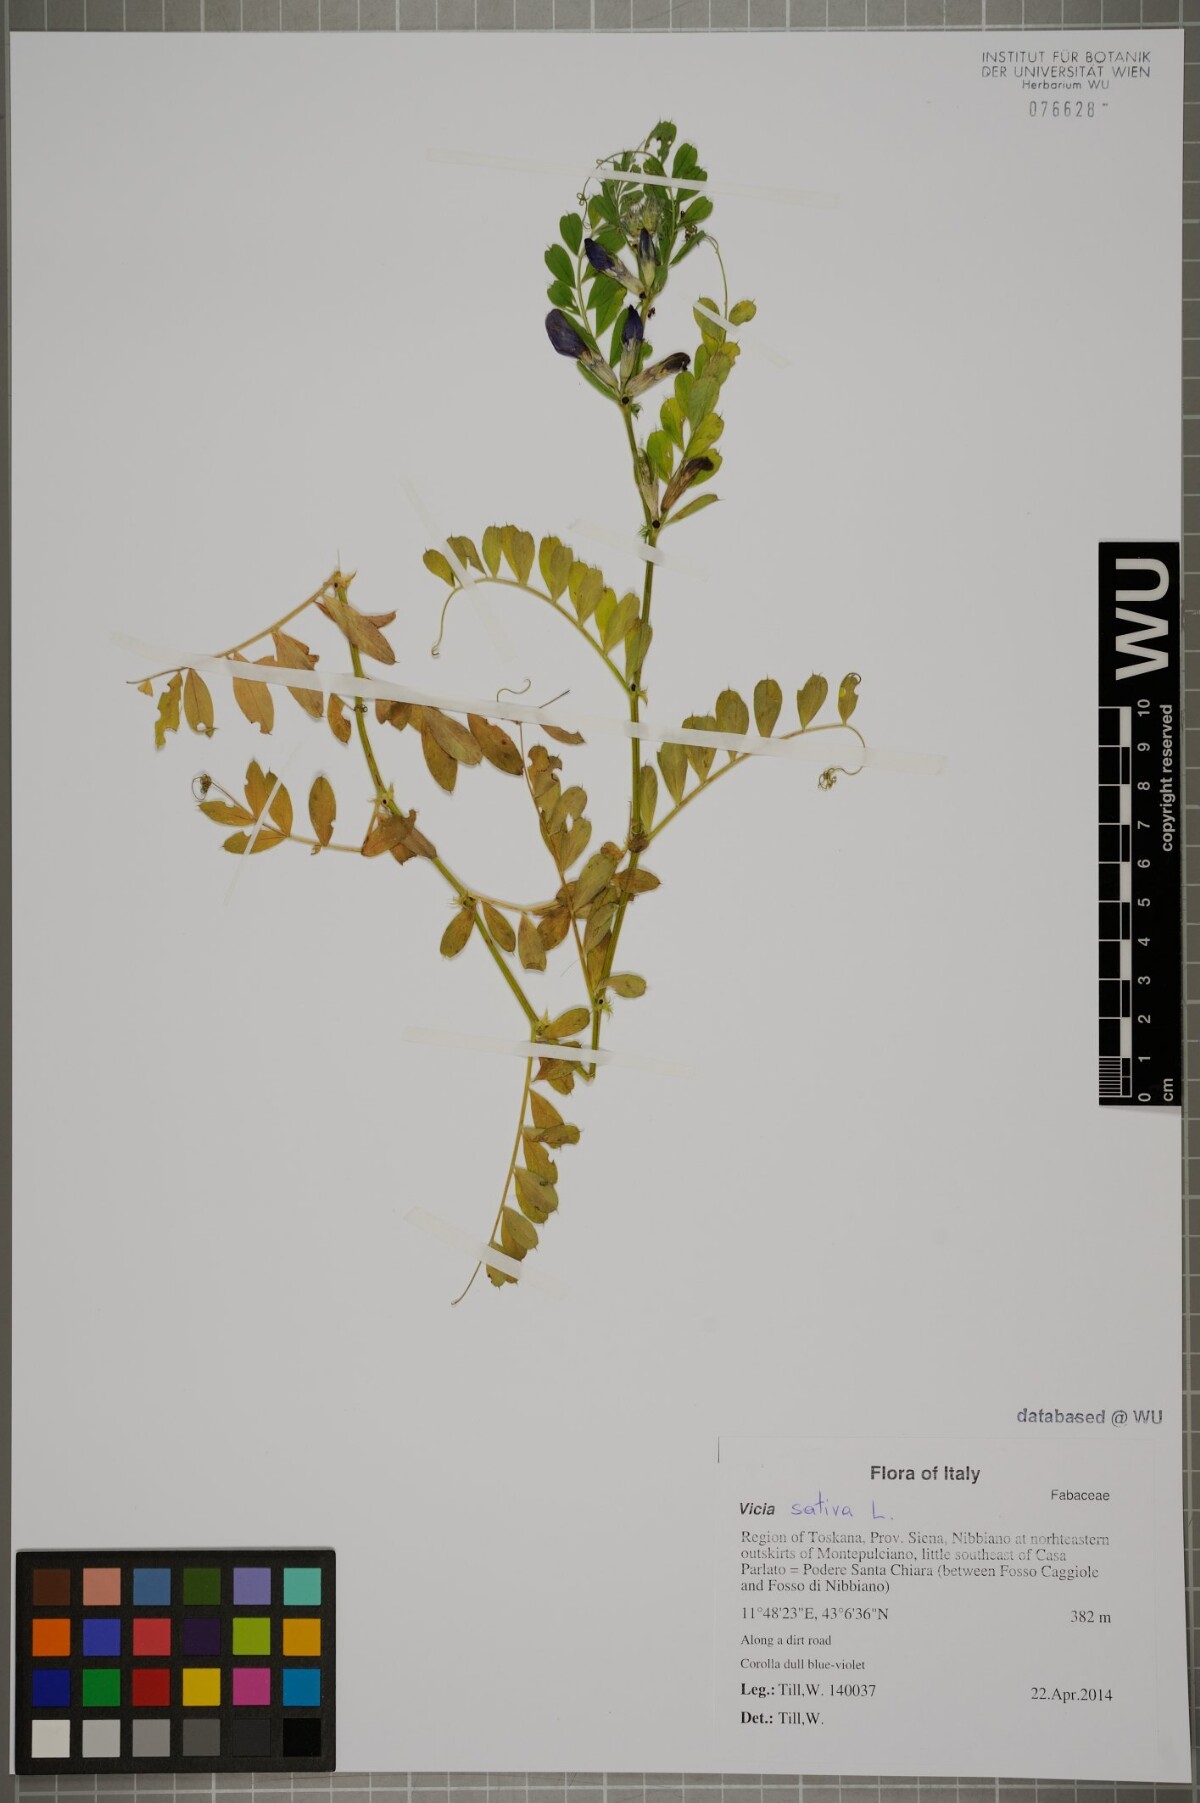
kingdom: Plantae
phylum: Tracheophyta
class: Magnoliopsida
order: Fabales
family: Fabaceae
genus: Vicia
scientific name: Vicia sativa
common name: Garden vetch
